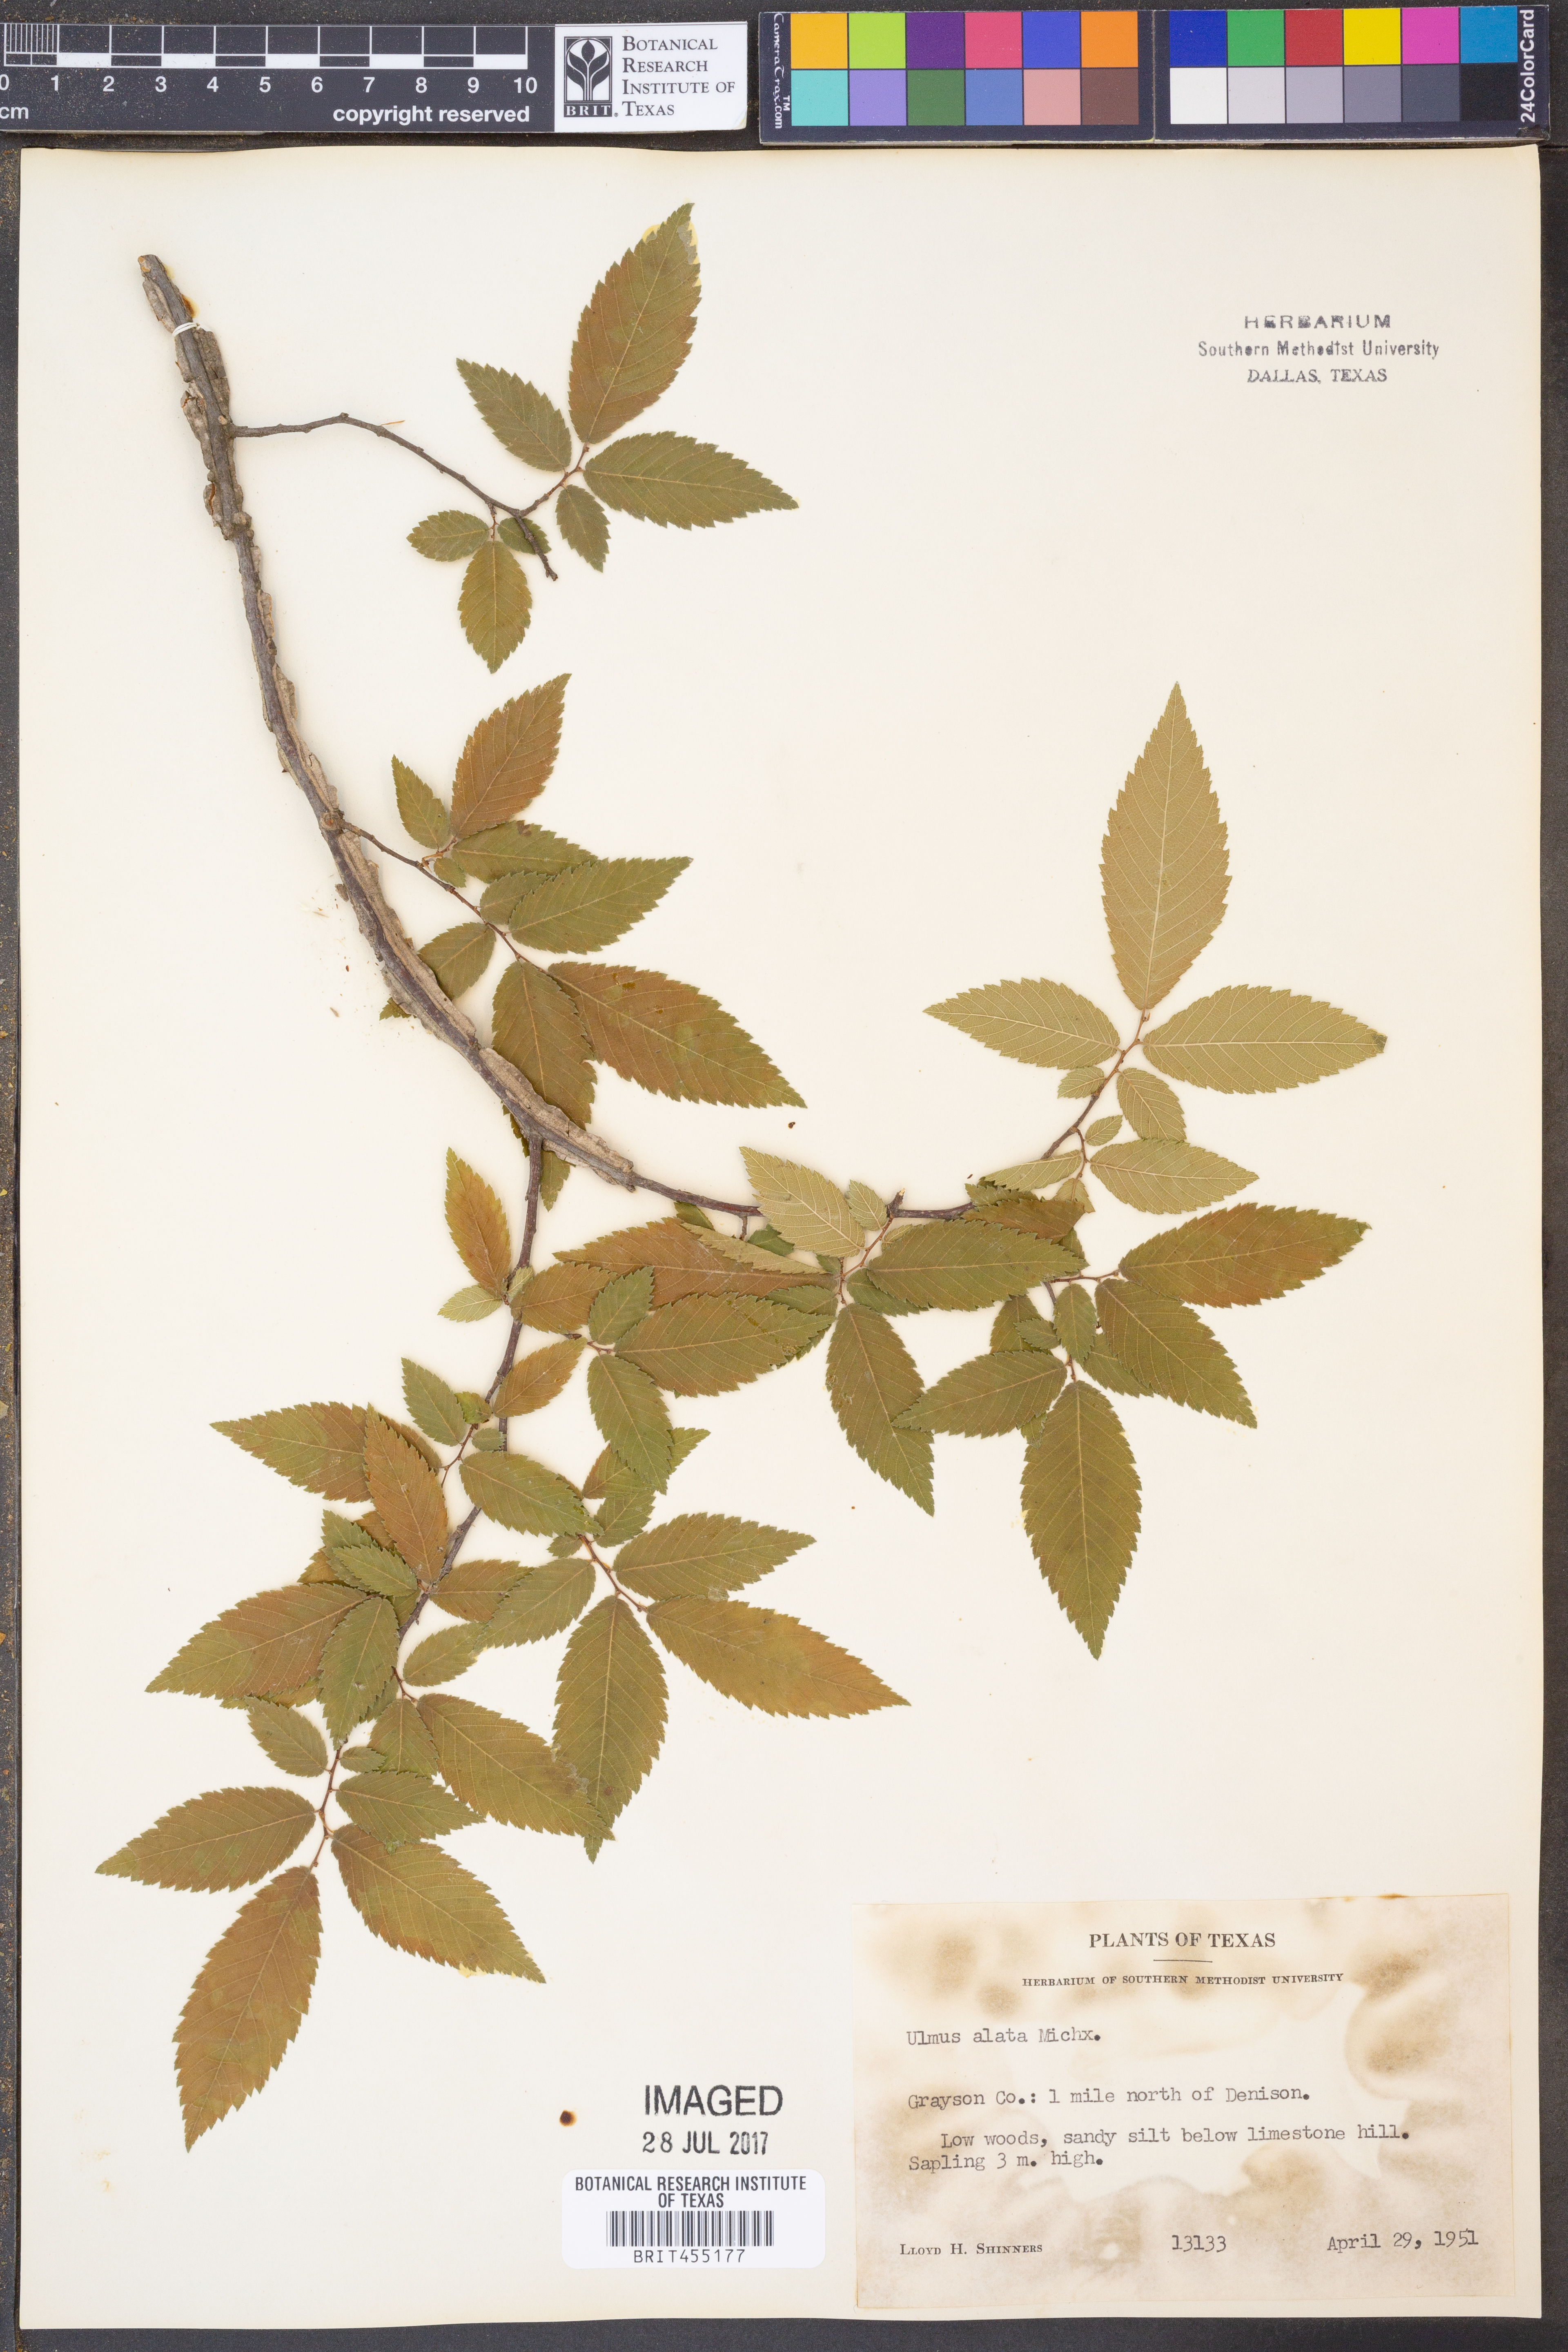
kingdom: Plantae
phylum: Tracheophyta
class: Magnoliopsida
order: Rosales
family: Ulmaceae
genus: Ulmus
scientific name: Ulmus alata
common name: Winged elm
